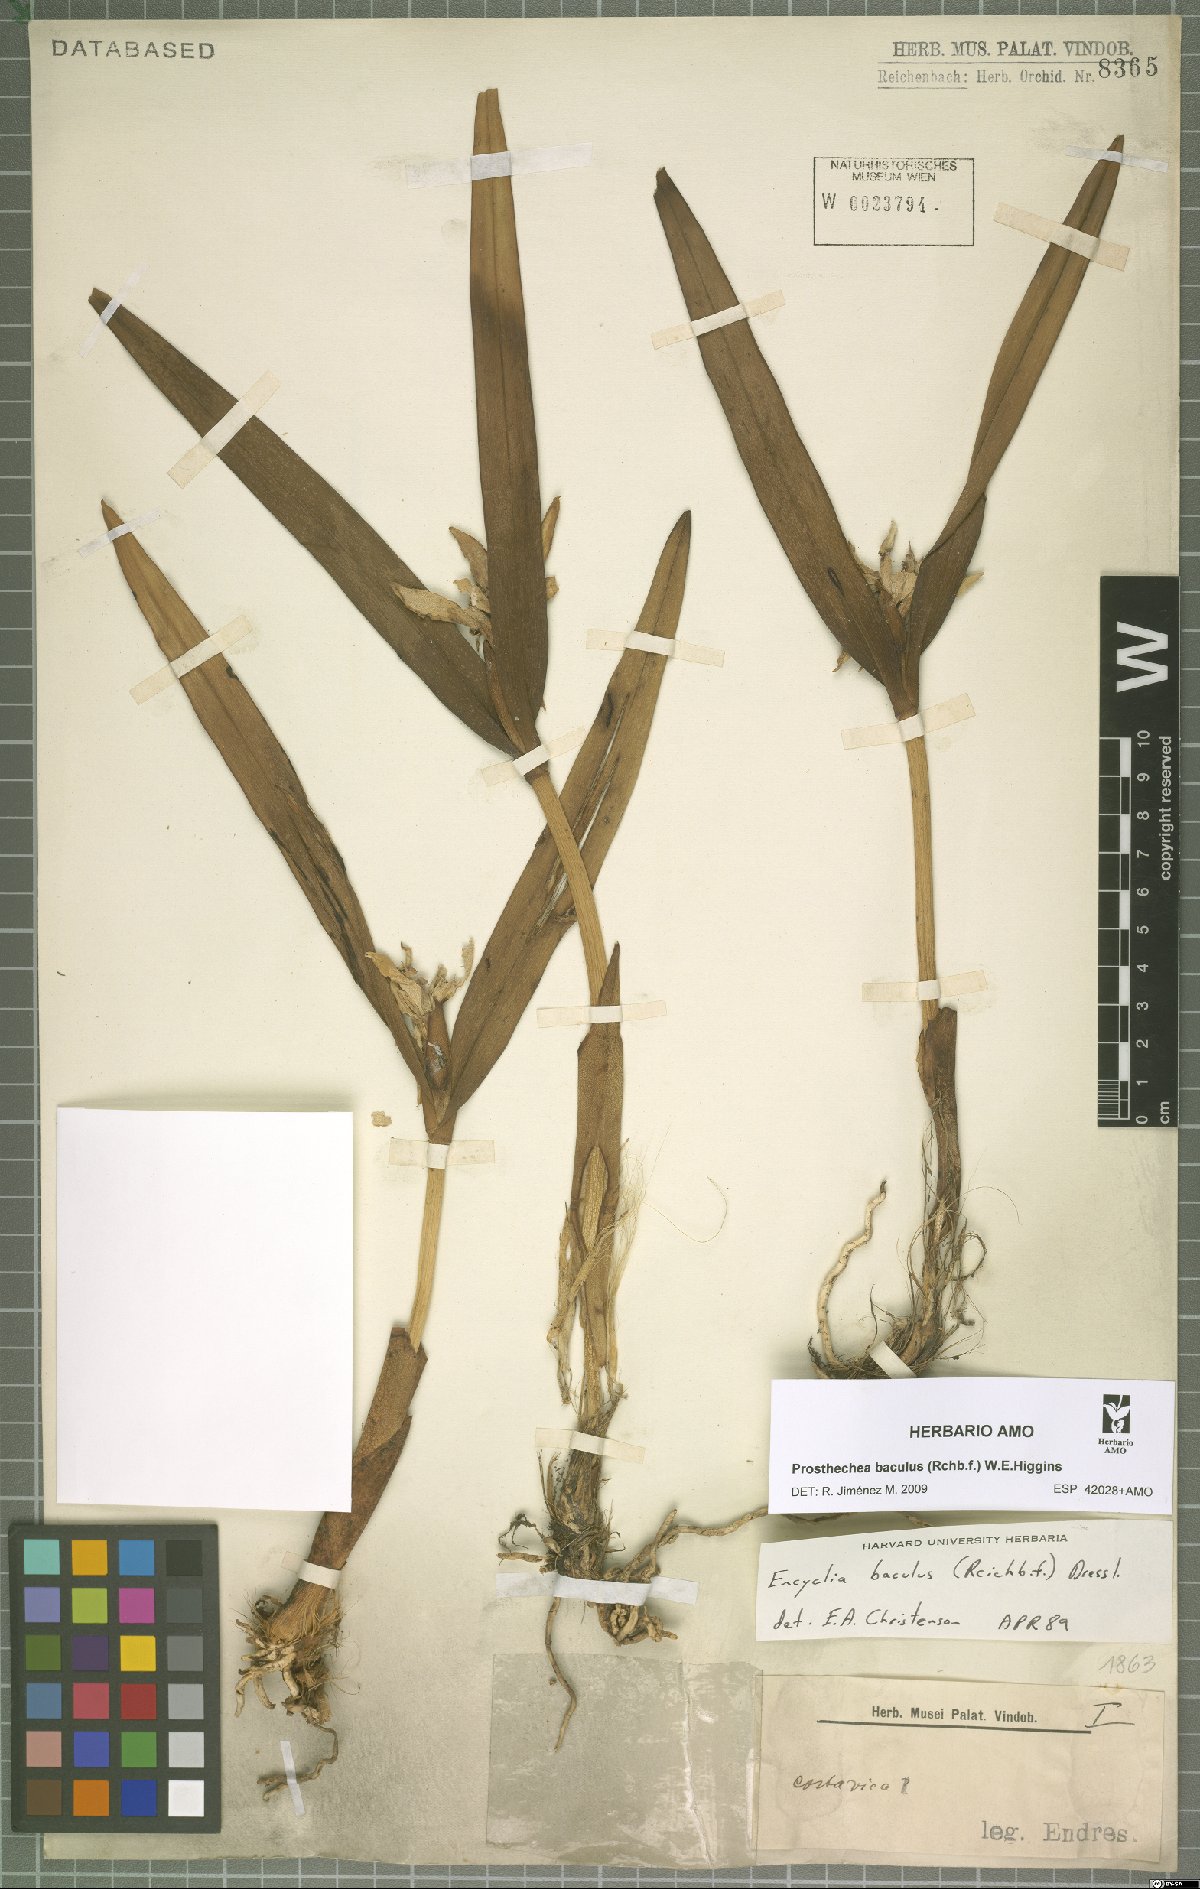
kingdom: Plantae
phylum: Tracheophyta
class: Liliopsida
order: Asparagales
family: Orchidaceae
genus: Prosthechea
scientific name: Prosthechea baculus
